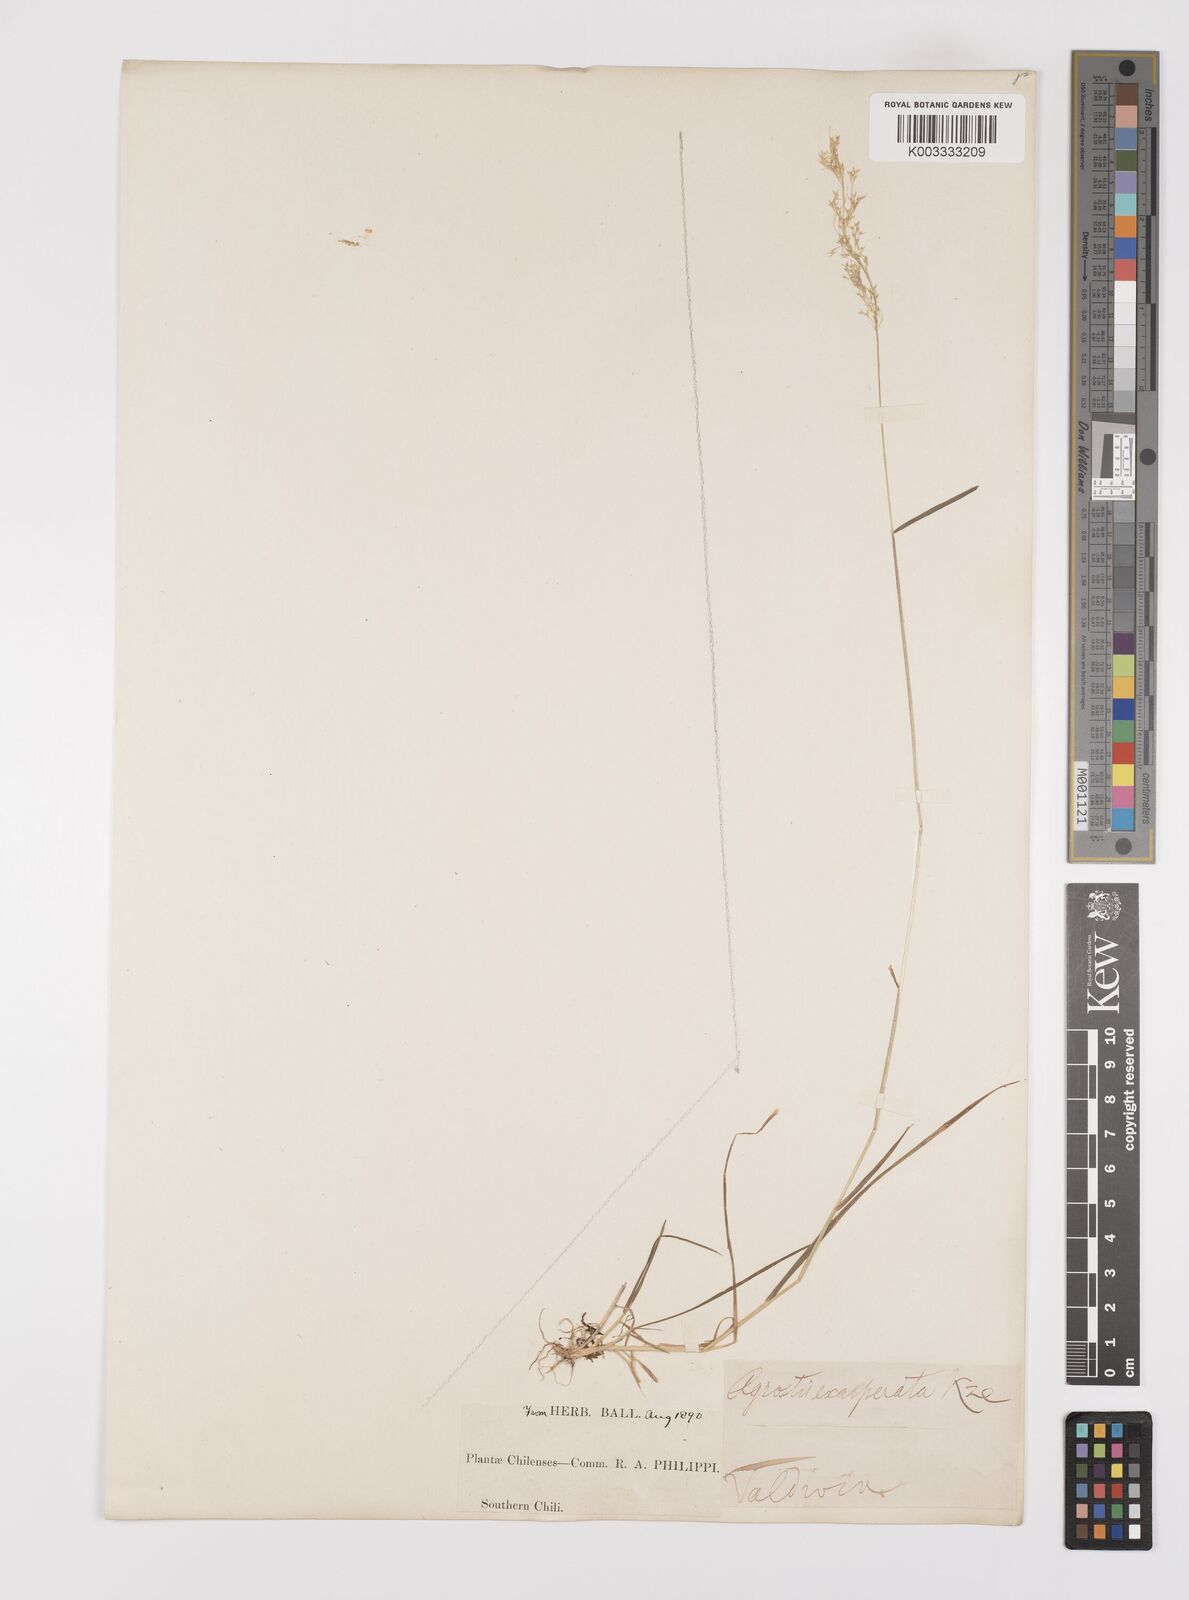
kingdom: Plantae
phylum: Tracheophyta
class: Liliopsida
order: Poales
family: Poaceae
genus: Polypogon
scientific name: Polypogon exasperatus
